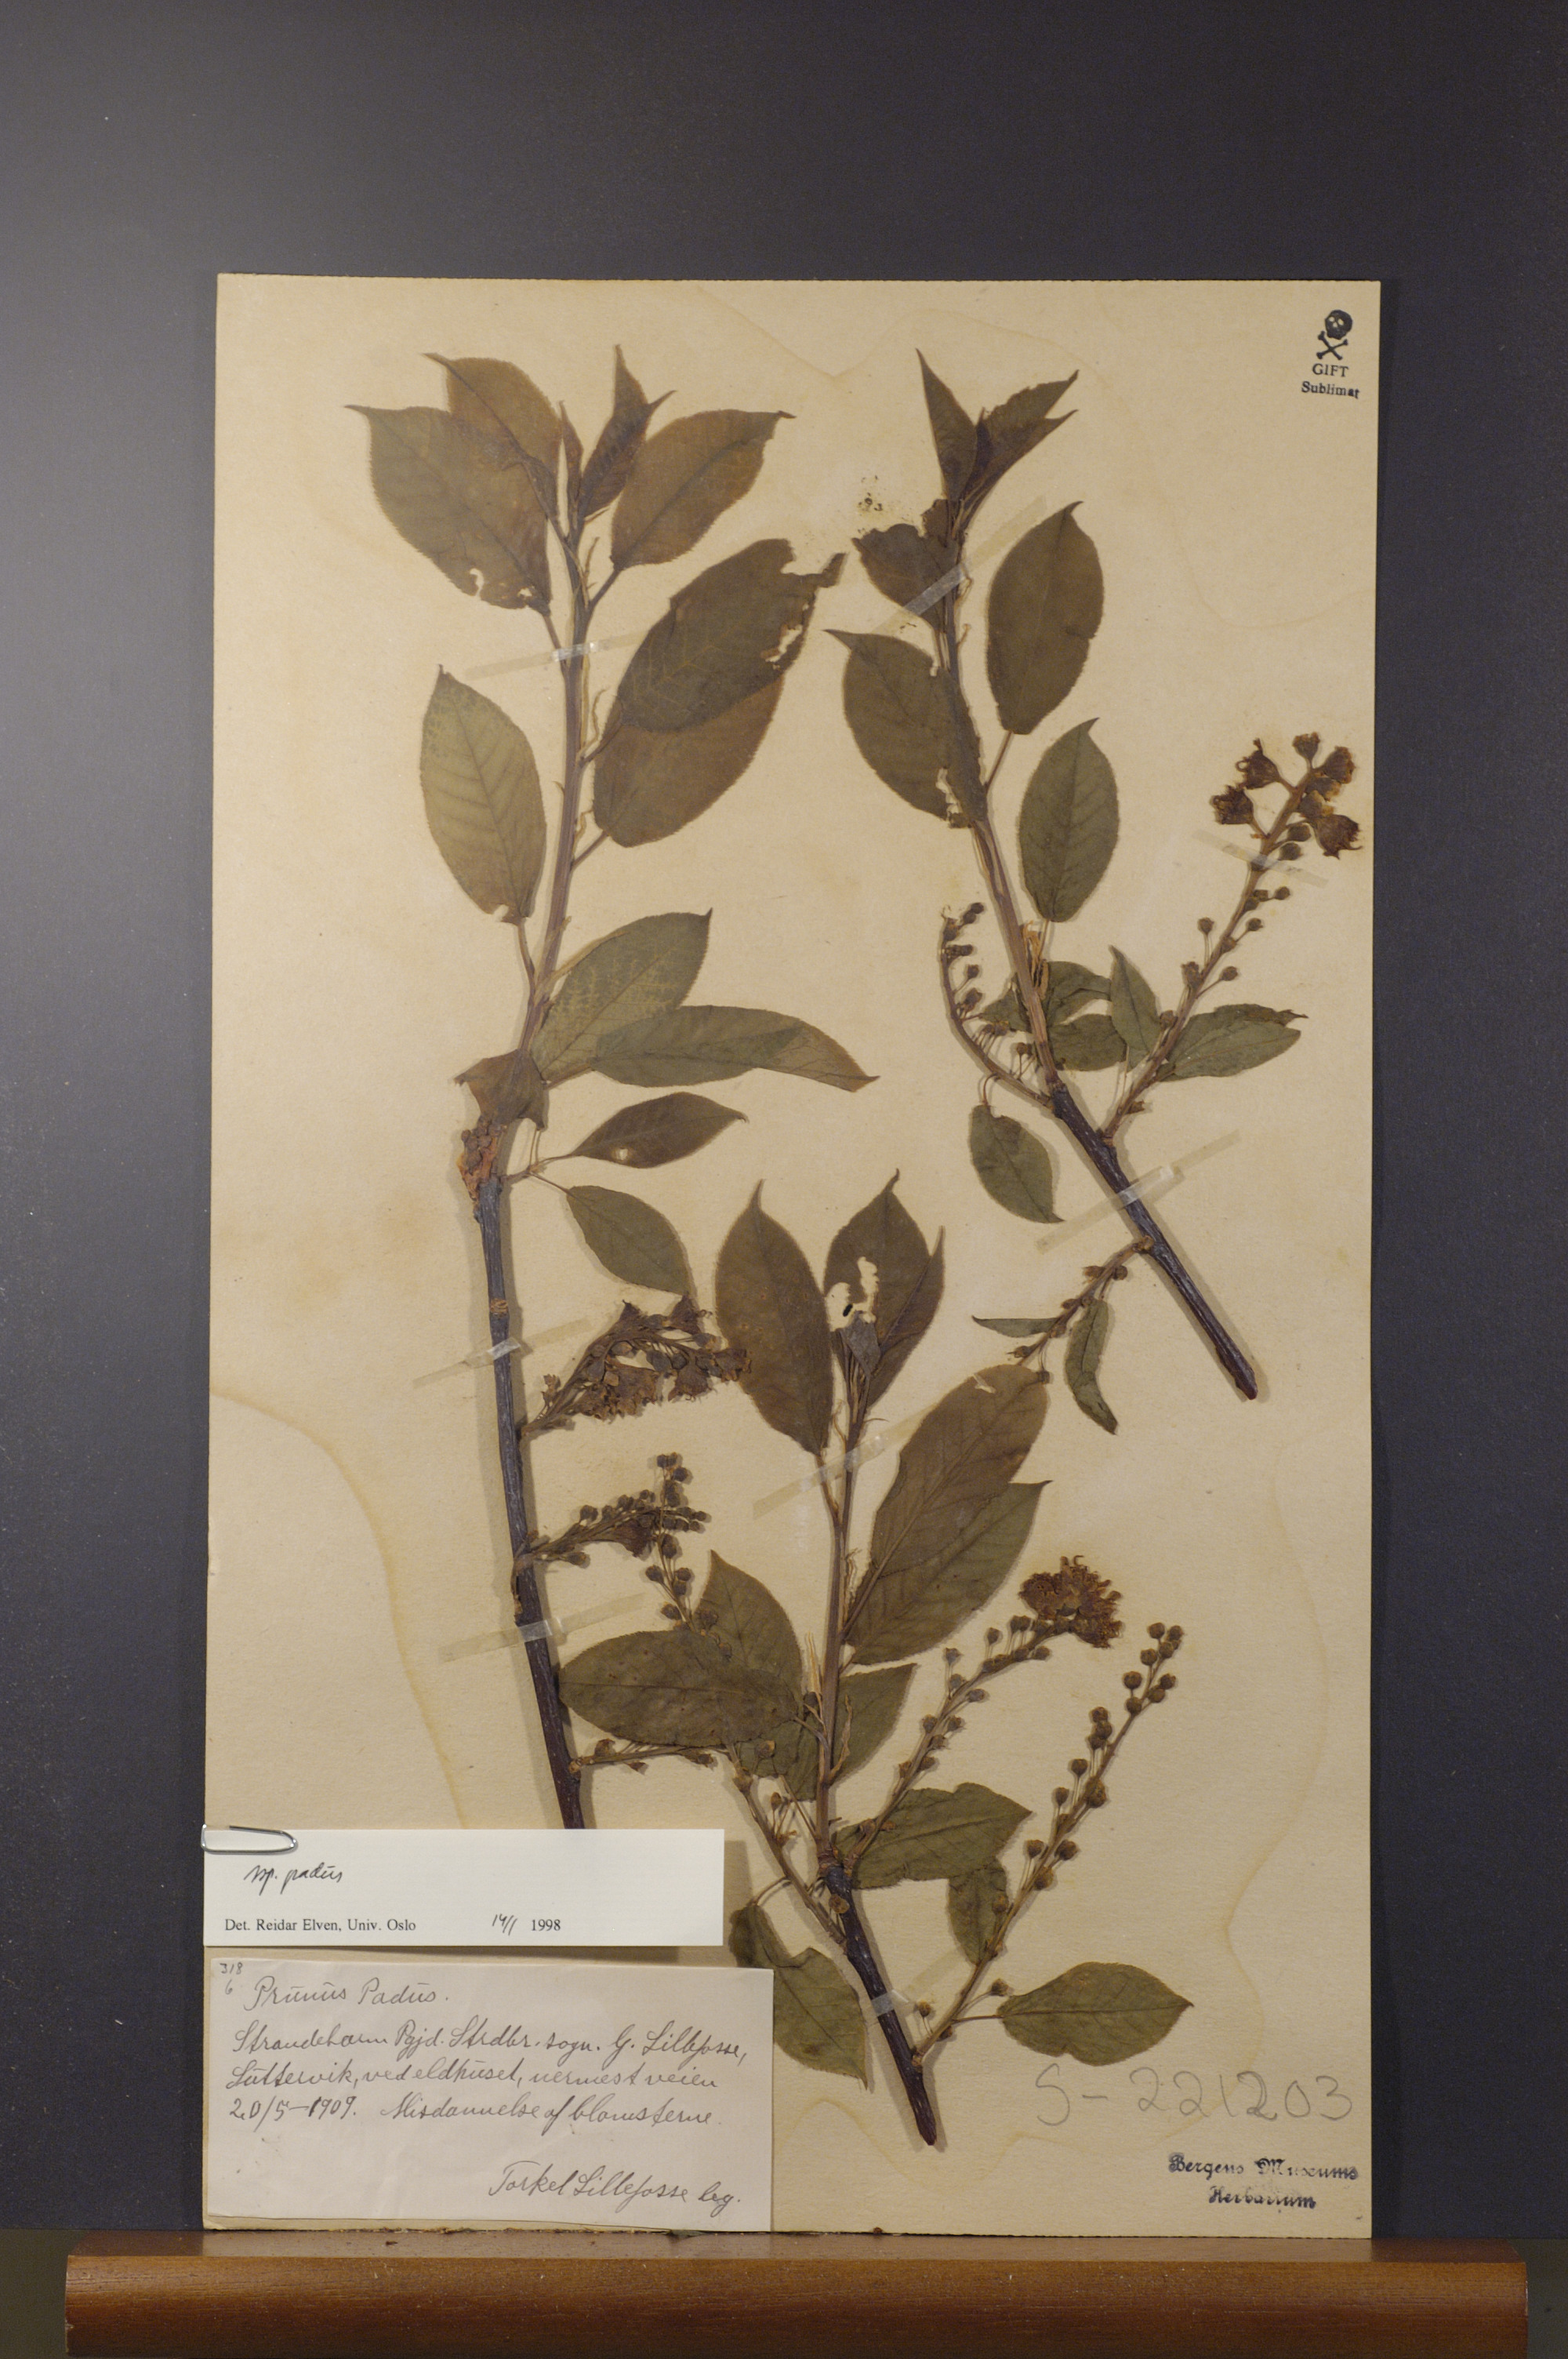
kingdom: Plantae
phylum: Tracheophyta
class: Magnoliopsida
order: Rosales
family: Rosaceae
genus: Prunus
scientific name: Prunus padus
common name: Bird cherry
